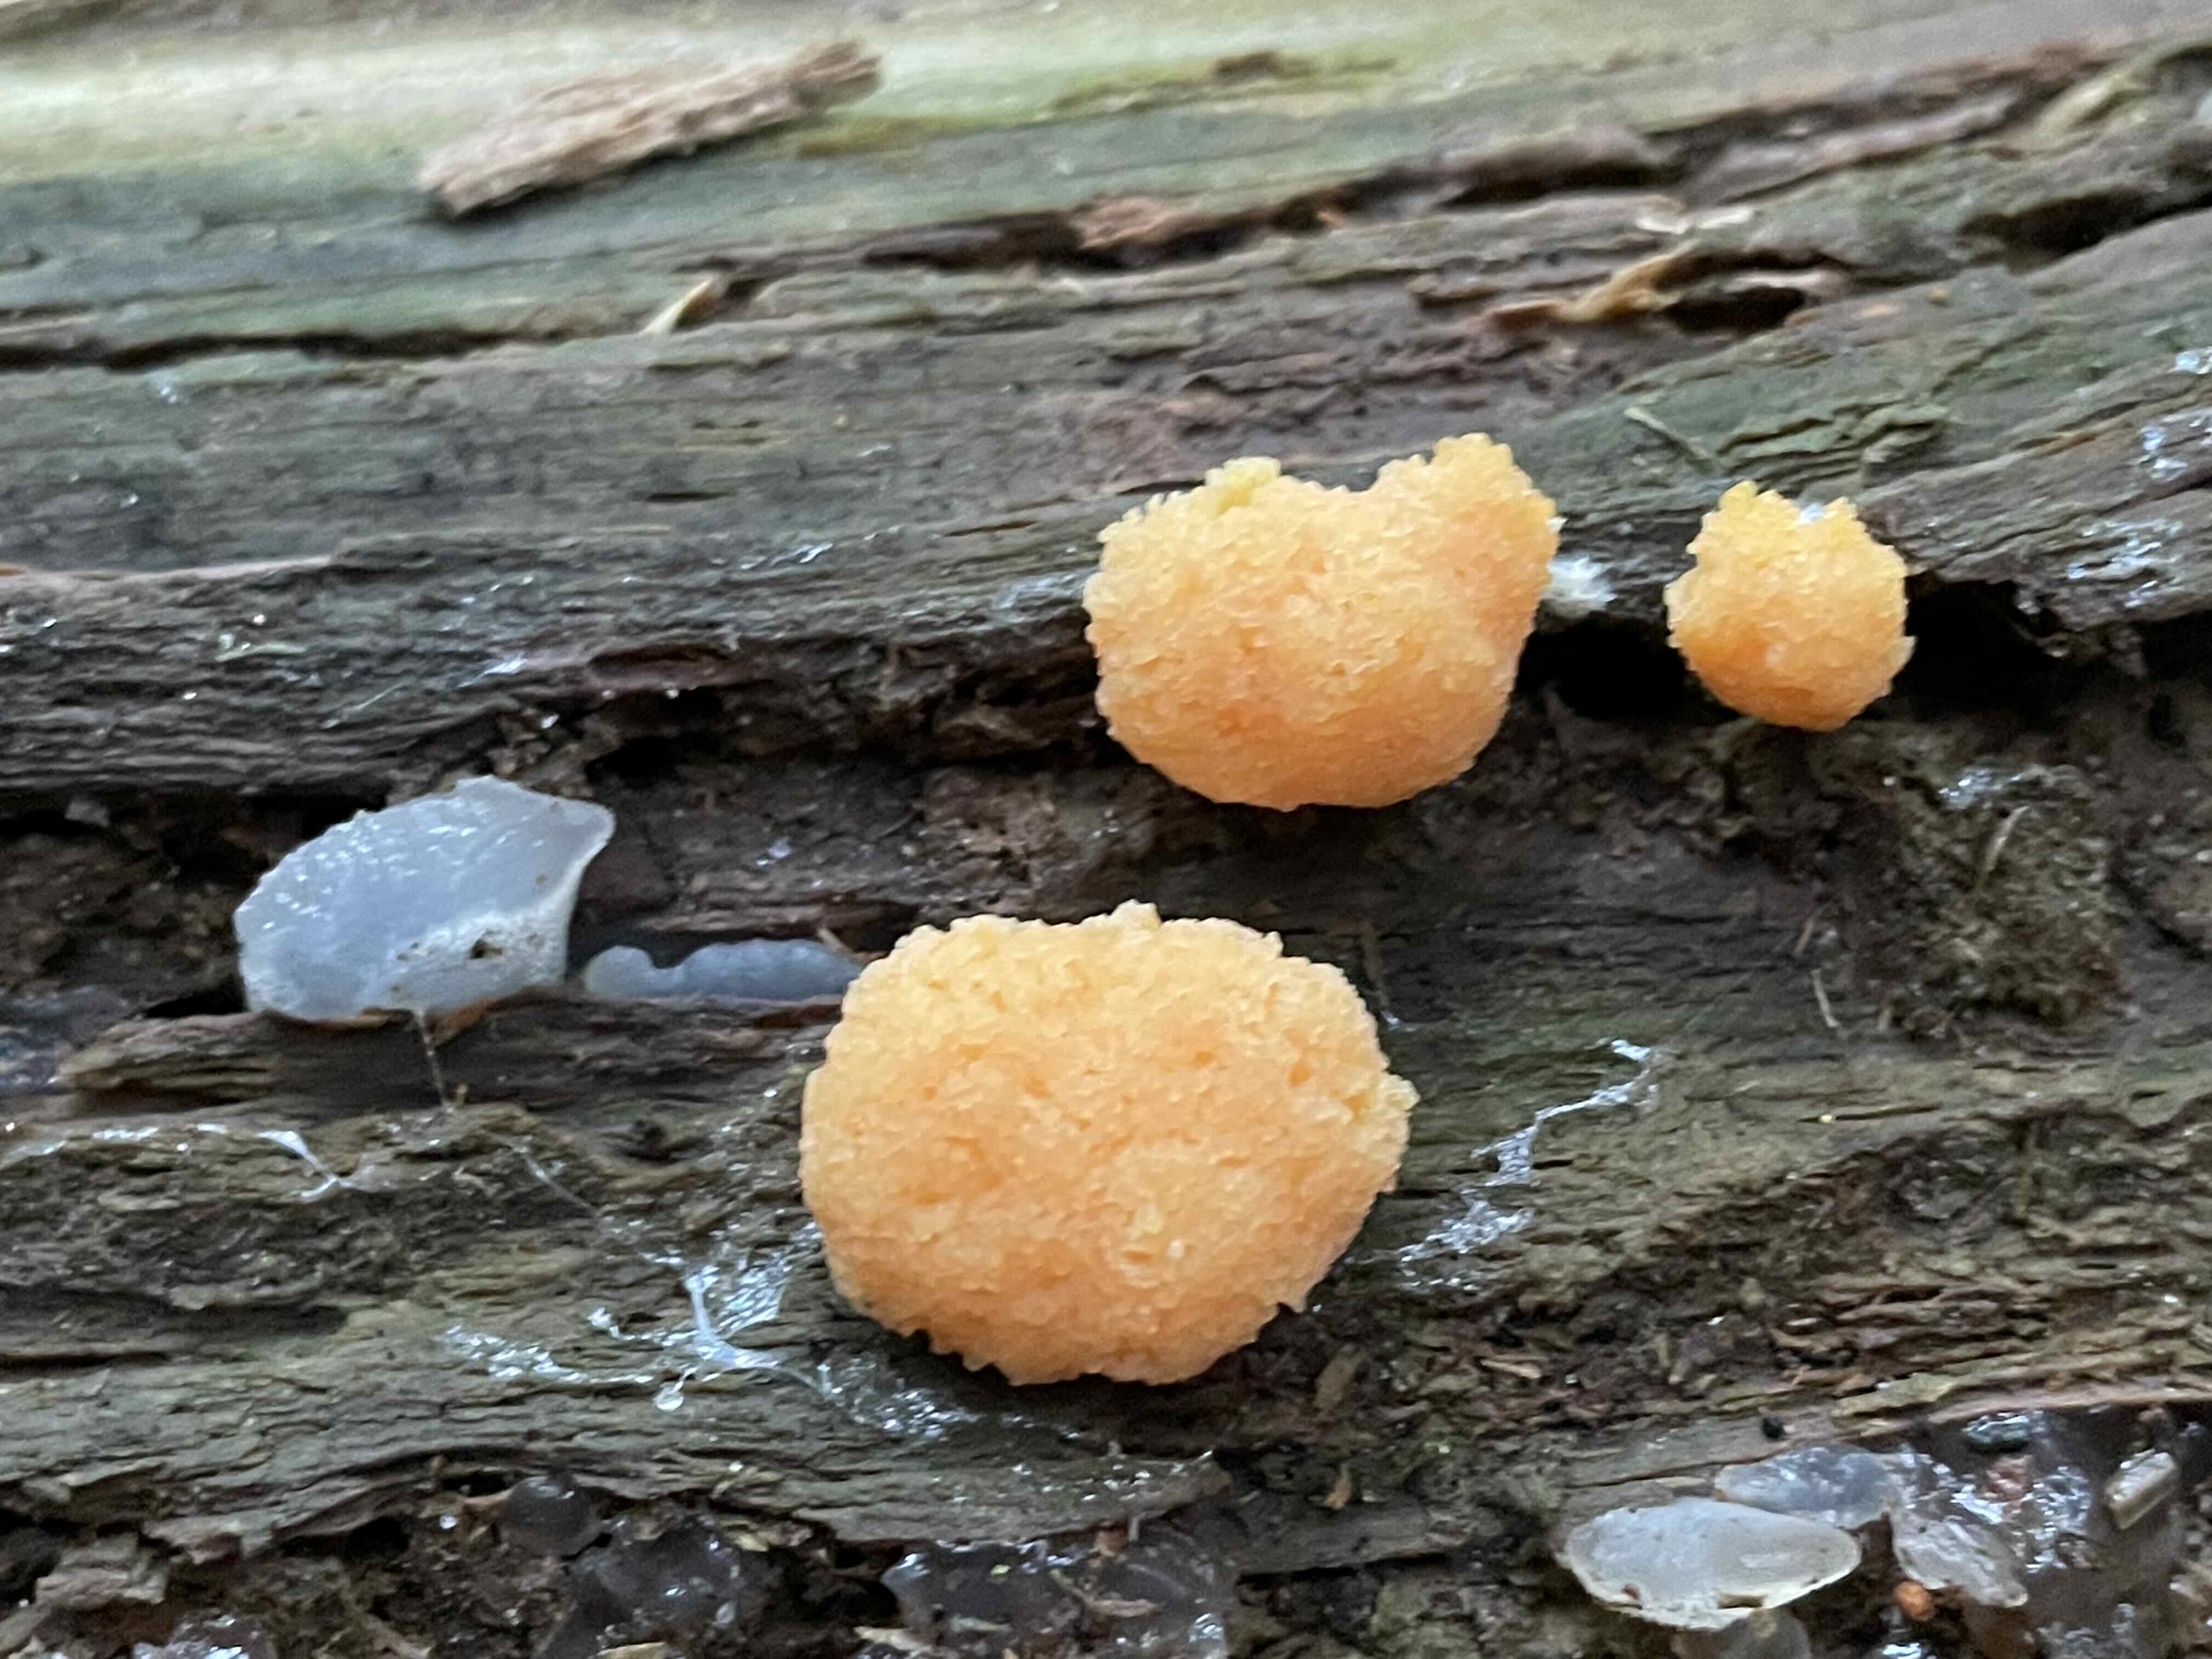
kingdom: Protozoa
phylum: Mycetozoa
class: Myxomycetes
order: Cribrariales
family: Tubiferaceae
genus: Tubifera
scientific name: Tubifera ferruginosa
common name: kanel-støvrør
